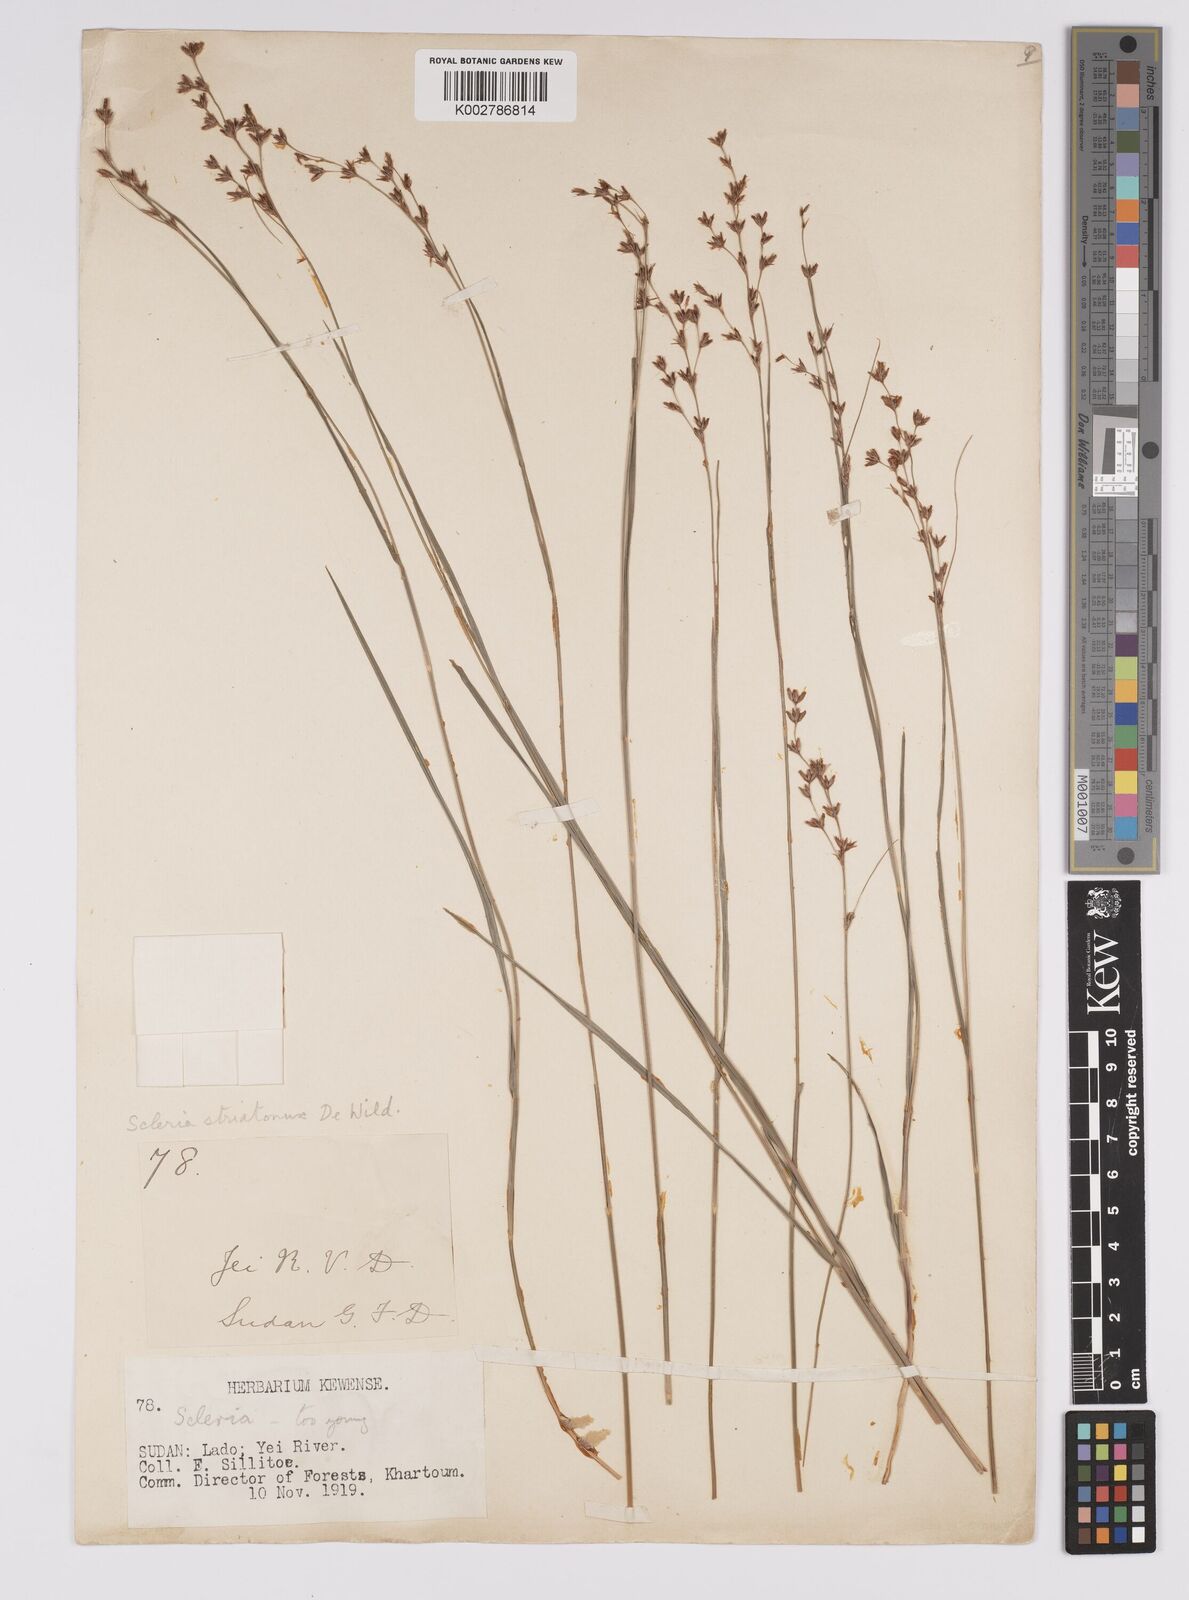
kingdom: Plantae
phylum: Tracheophyta
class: Liliopsida
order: Poales
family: Cyperaceae
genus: Scleria
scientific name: Scleria woodii
